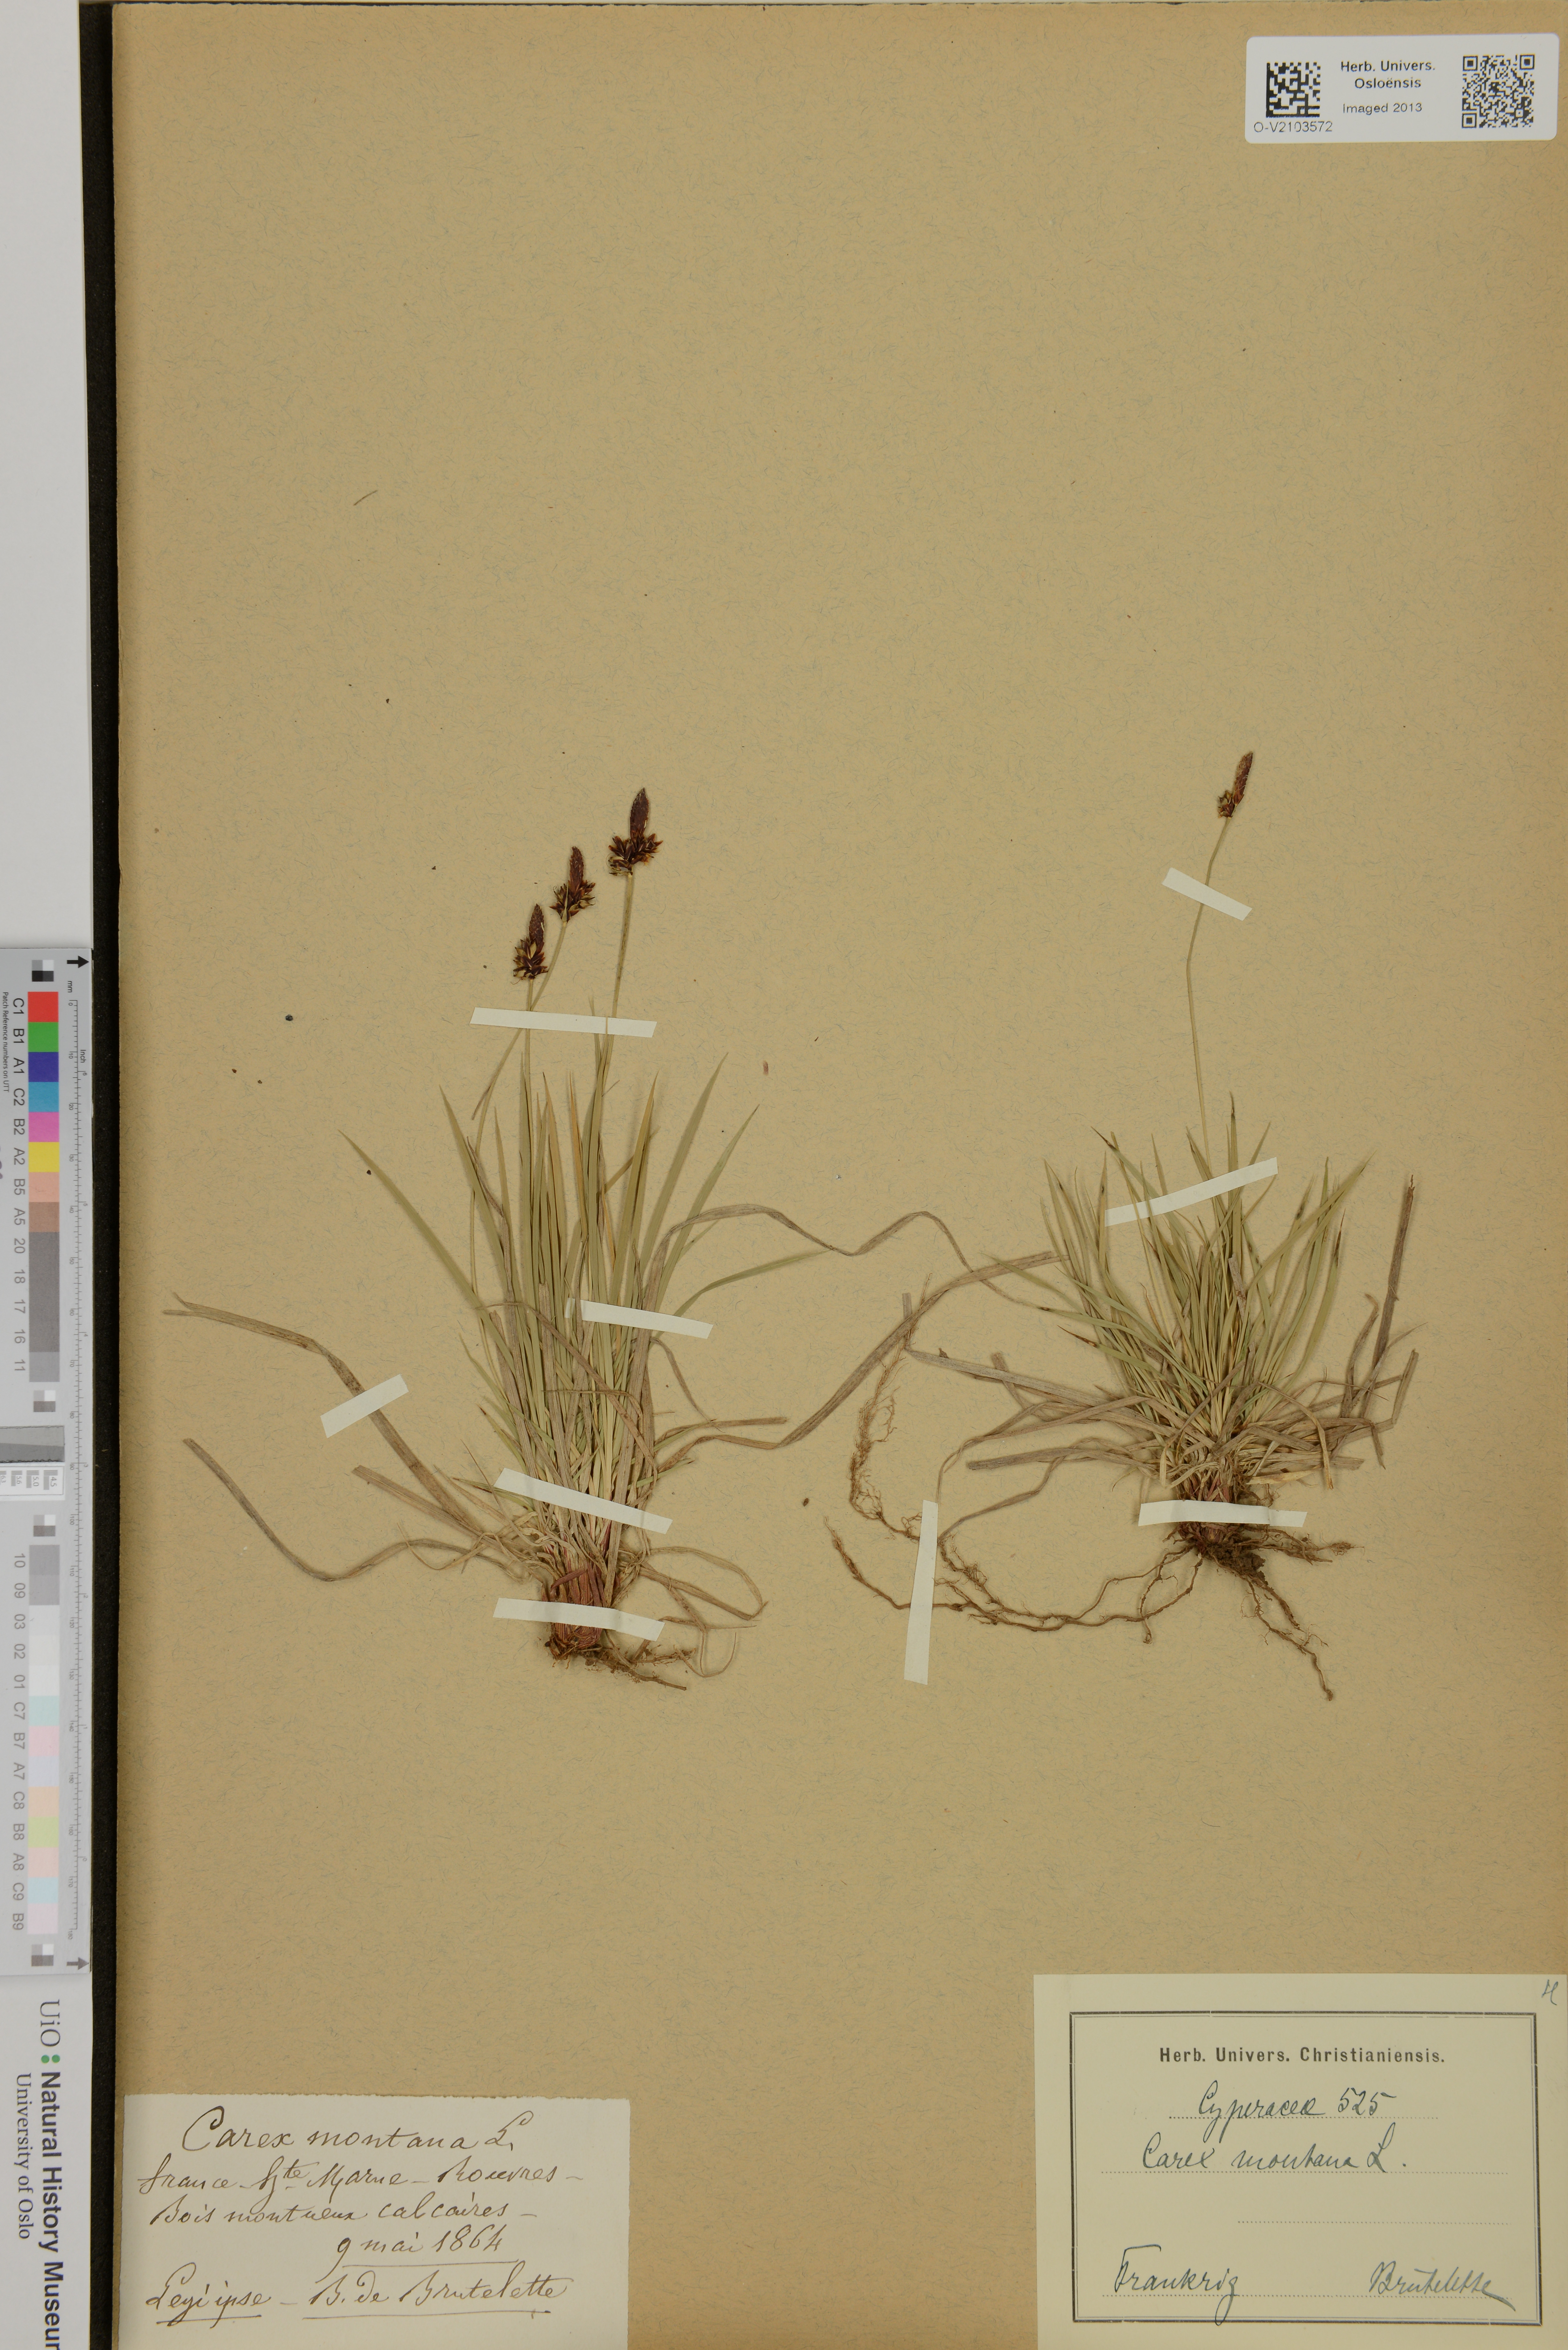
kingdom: Plantae
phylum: Tracheophyta
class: Liliopsida
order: Poales
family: Cyperaceae
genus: Carex
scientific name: Carex montana
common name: Soft-leaved sedge
